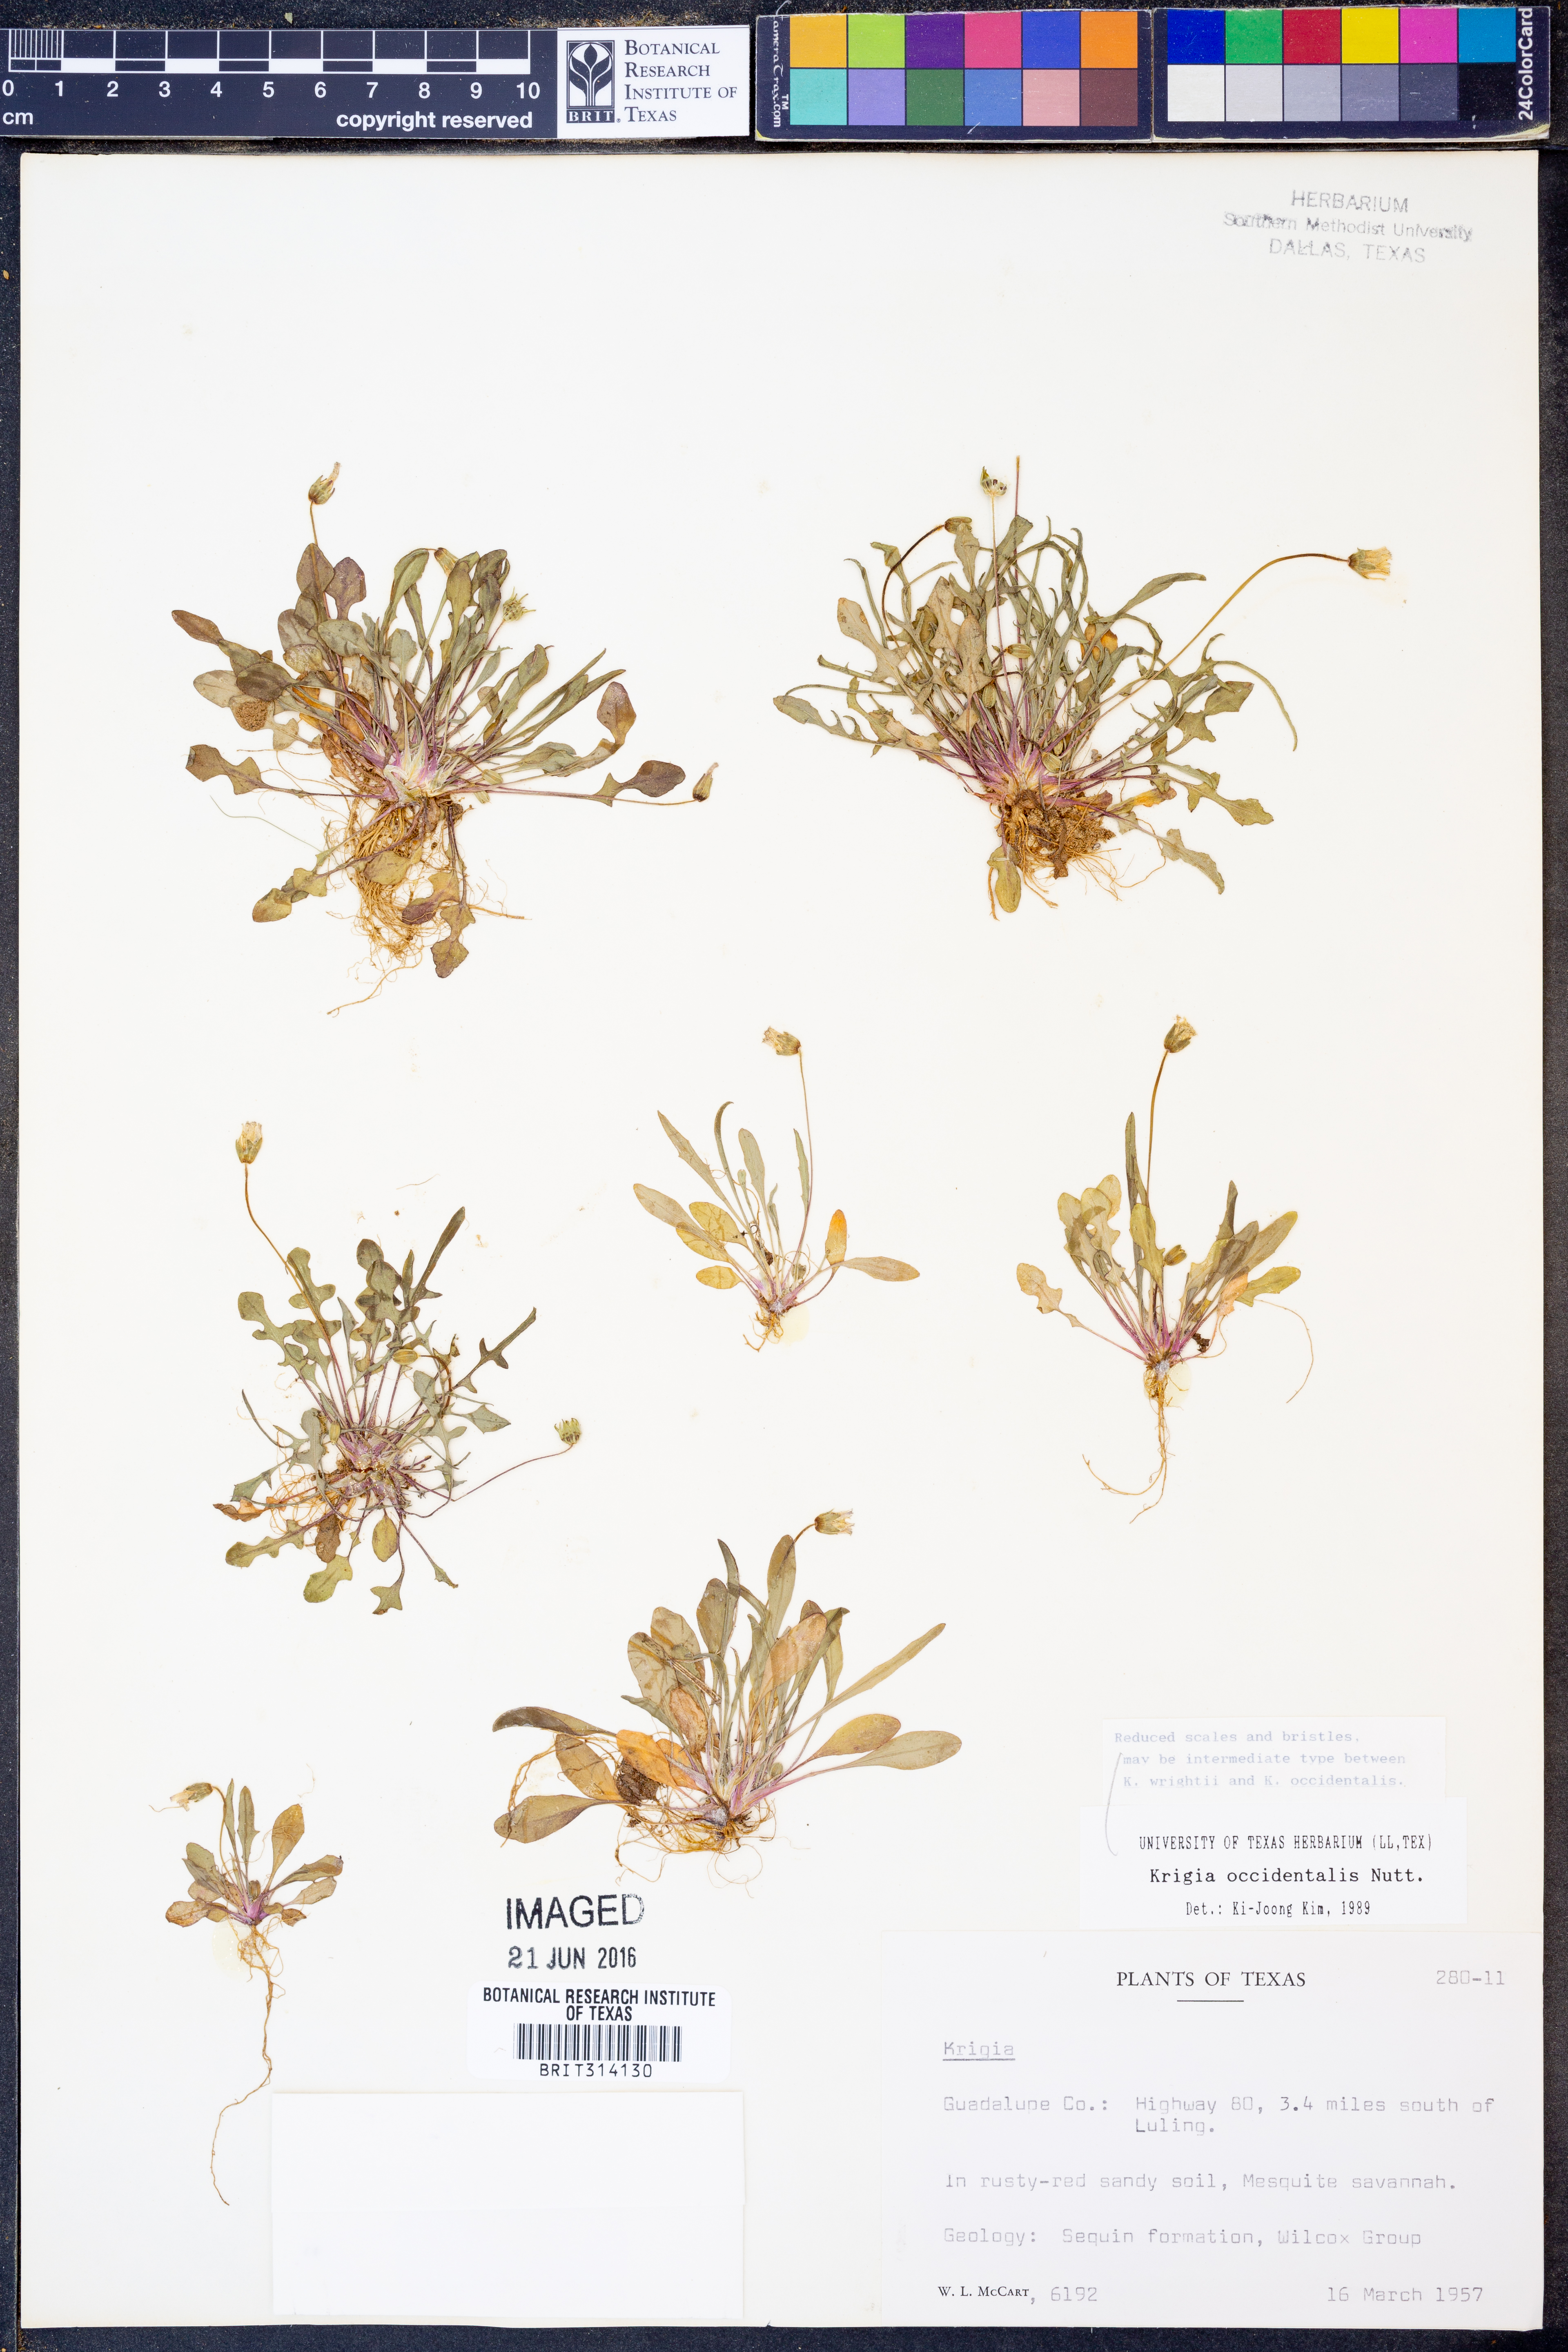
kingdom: Plantae
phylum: Tracheophyta
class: Magnoliopsida
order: Asterales
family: Asteraceae
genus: Krigia
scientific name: Krigia occidentalis
